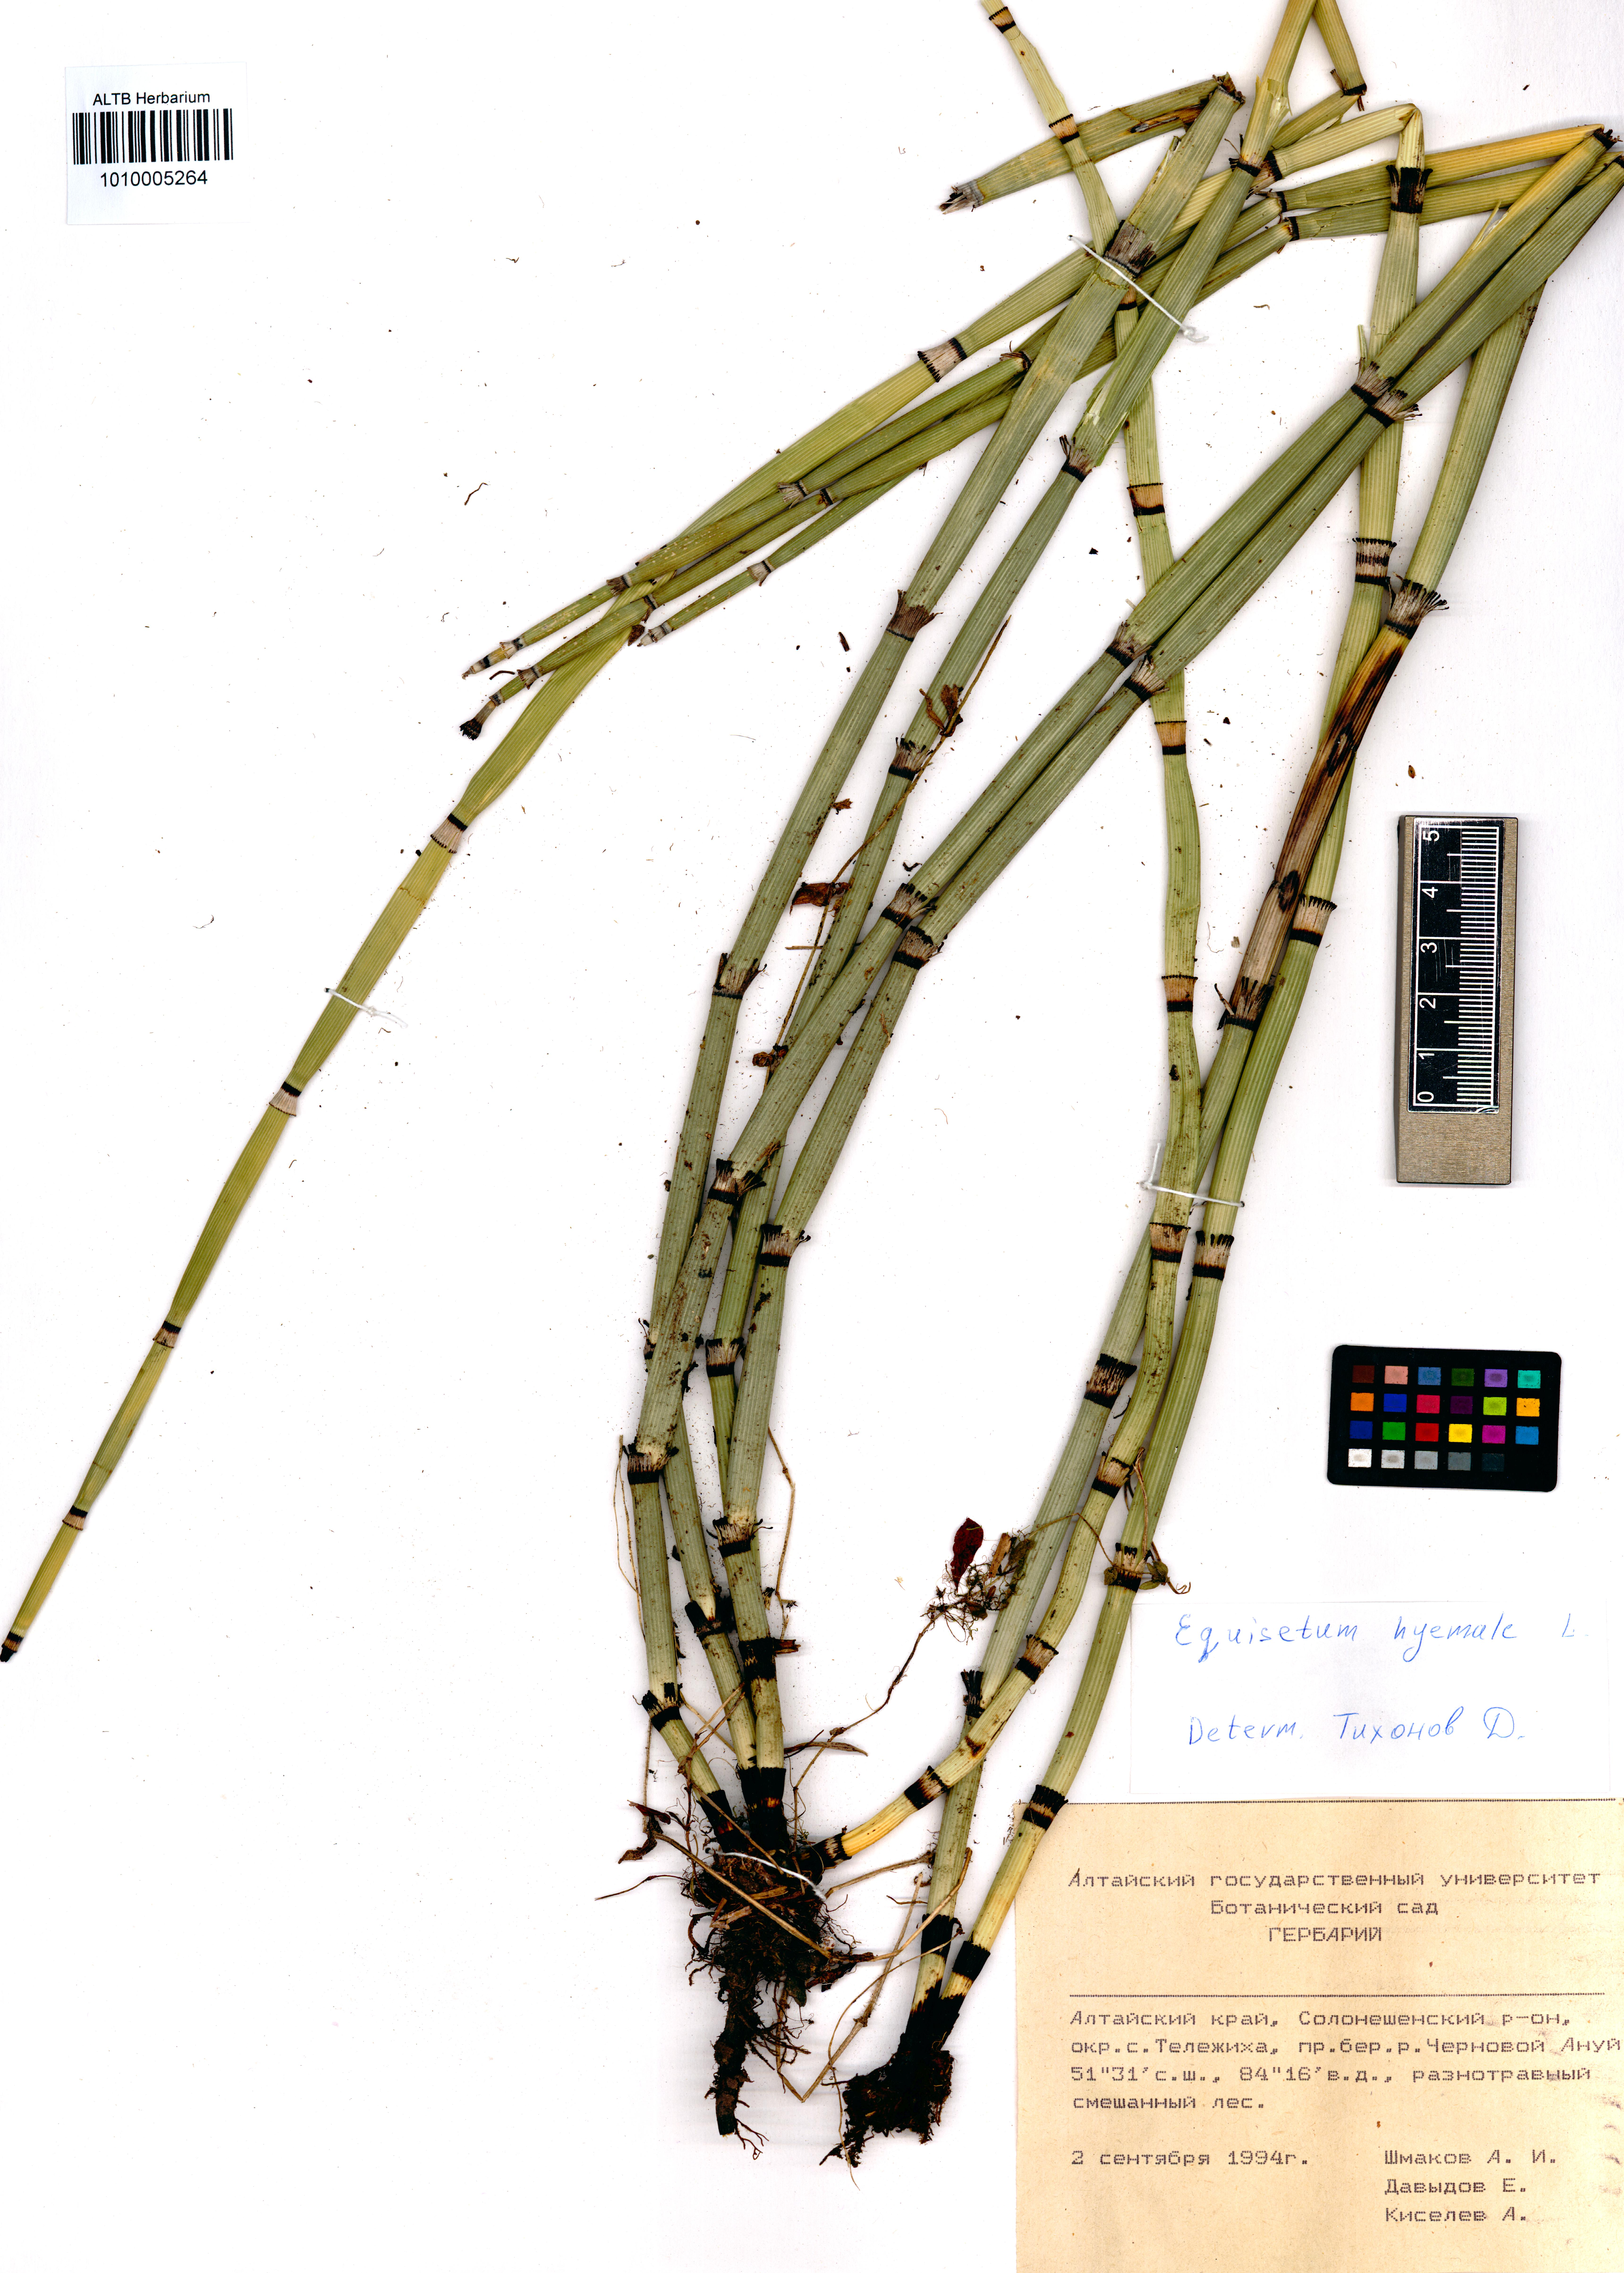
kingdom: Plantae
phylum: Tracheophyta
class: Polypodiopsida
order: Equisetales
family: Equisetaceae
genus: Equisetum
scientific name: Equisetum hyemale
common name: Rough horsetail
